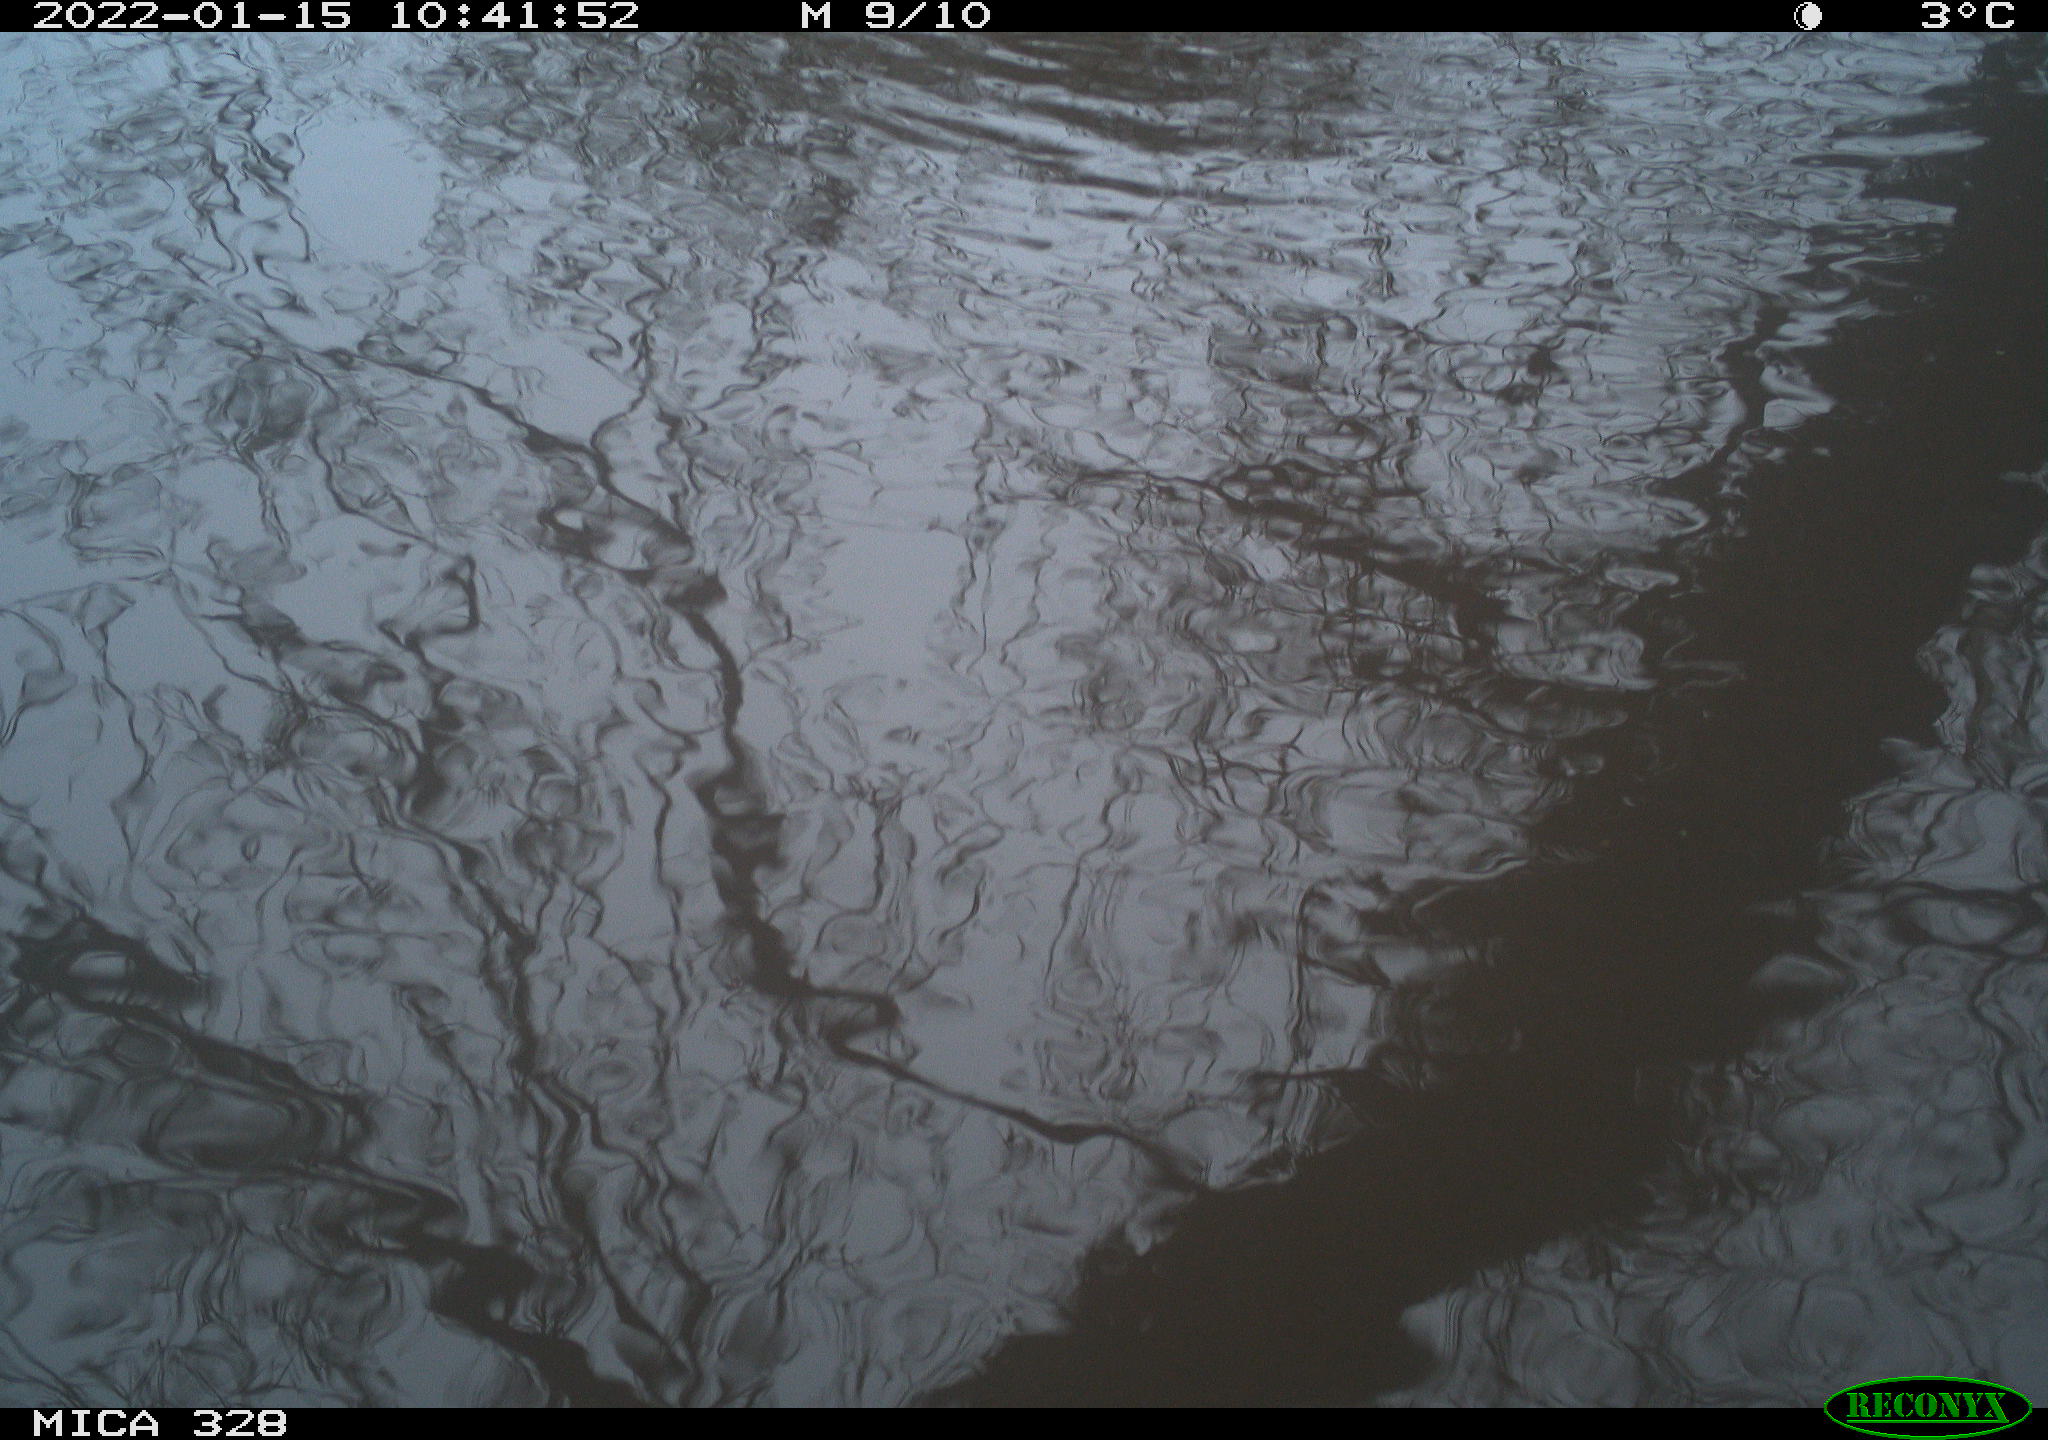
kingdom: Animalia
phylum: Chordata
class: Mammalia
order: Rodentia
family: Cricetidae
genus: Ondatra
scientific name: Ondatra zibethicus
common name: Muskrat
